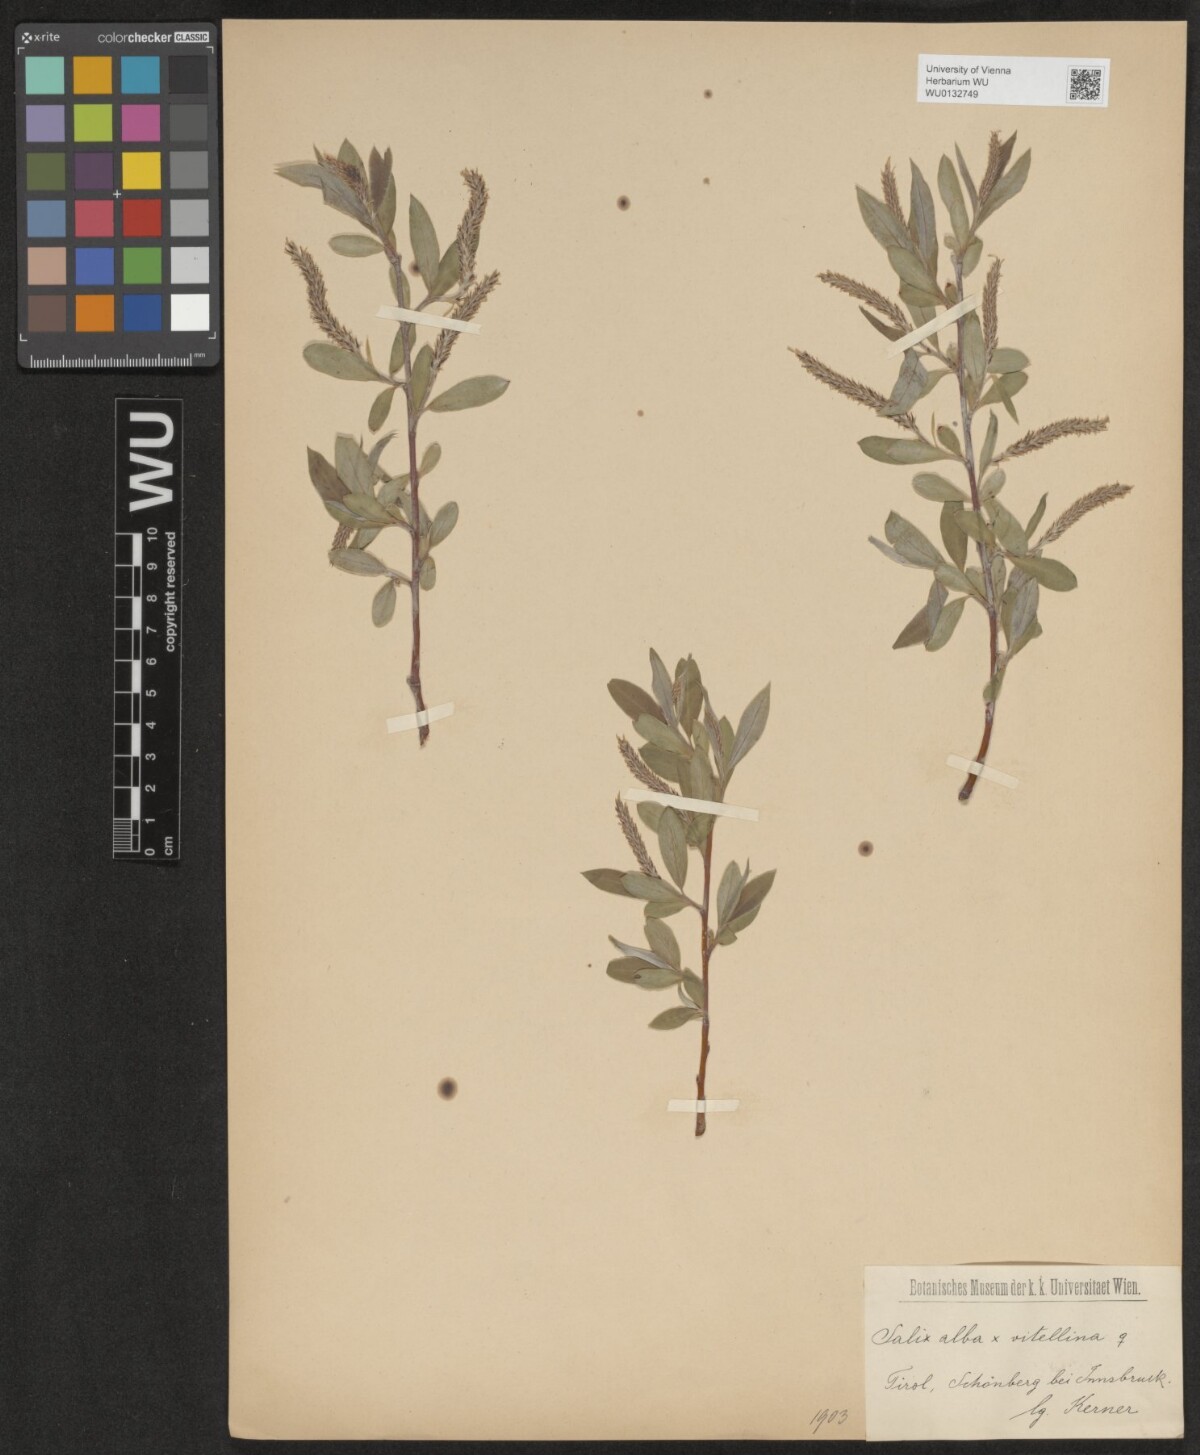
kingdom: Plantae
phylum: Tracheophyta
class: Magnoliopsida
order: Malpighiales
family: Salicaceae
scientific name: Salicaceae
